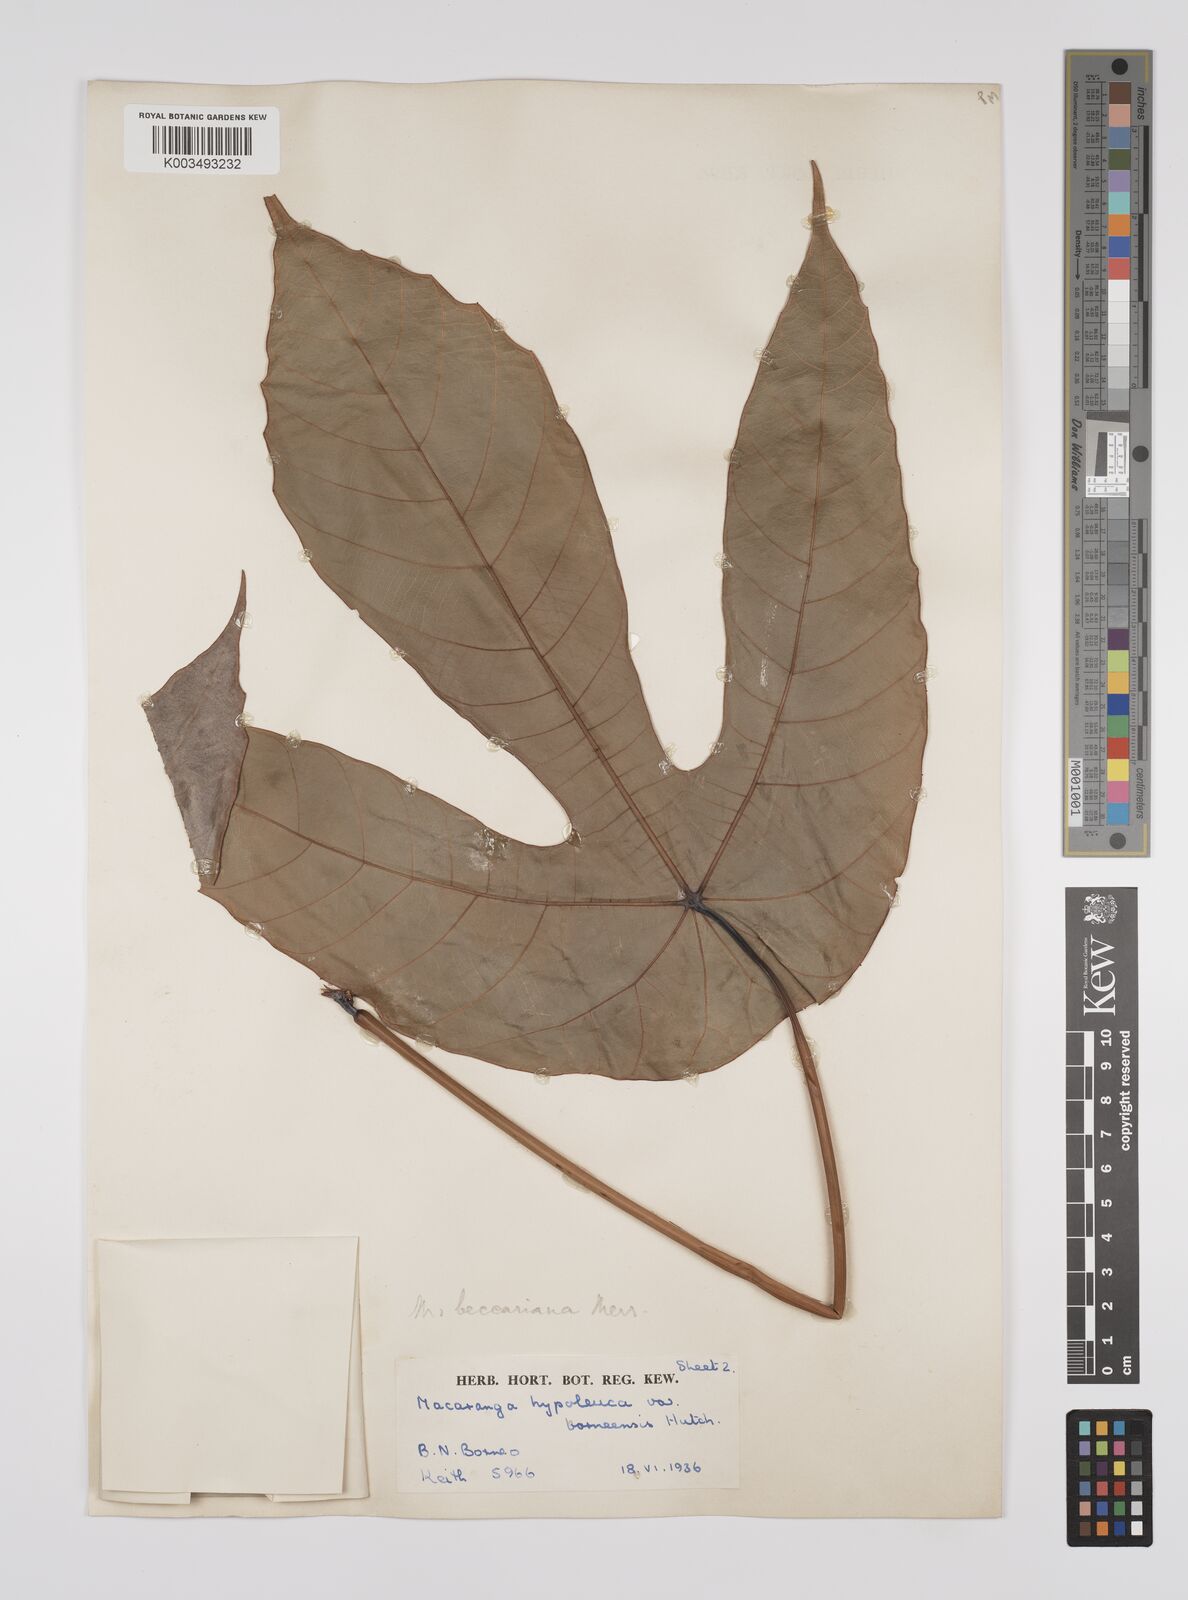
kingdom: Plantae
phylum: Tracheophyta
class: Magnoliopsida
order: Malpighiales
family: Euphorbiaceae
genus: Macaranga
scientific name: Macaranga beccariana
